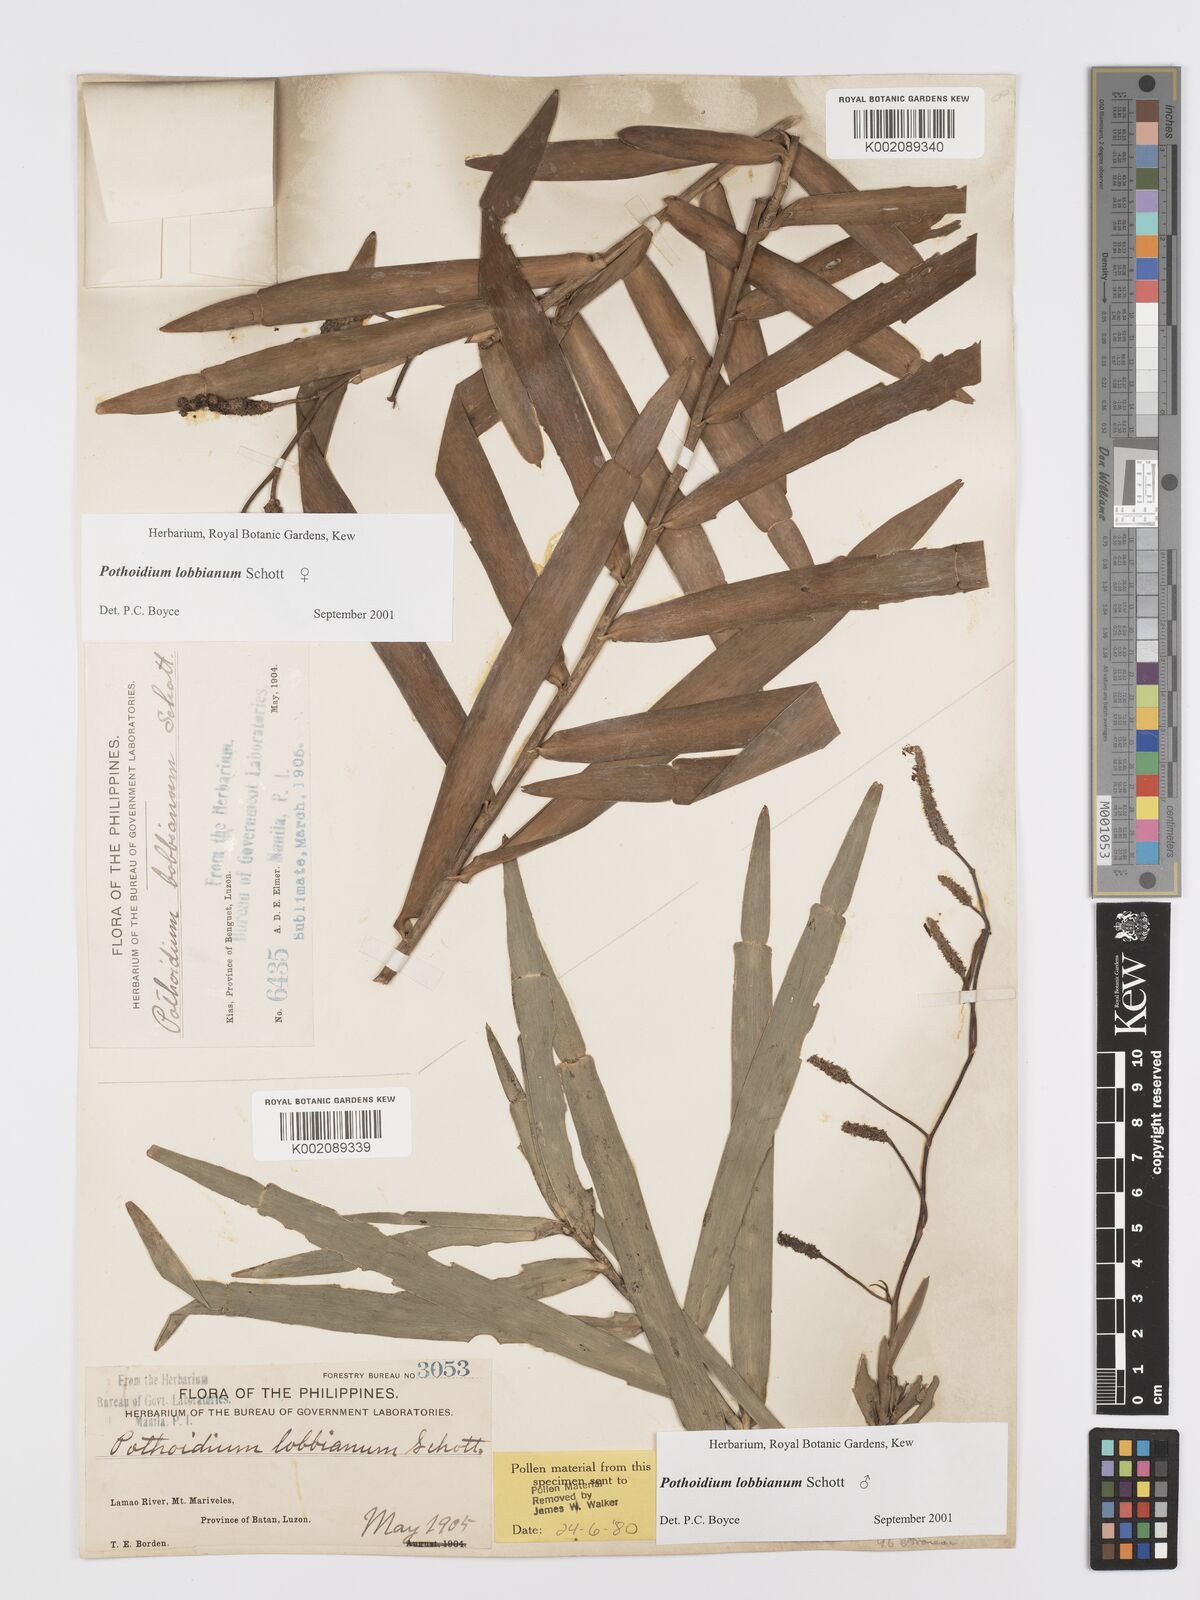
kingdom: Plantae
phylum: Tracheophyta
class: Liliopsida
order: Alismatales
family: Araceae
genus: Pothoidium
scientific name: Pothoidium lobbianum
